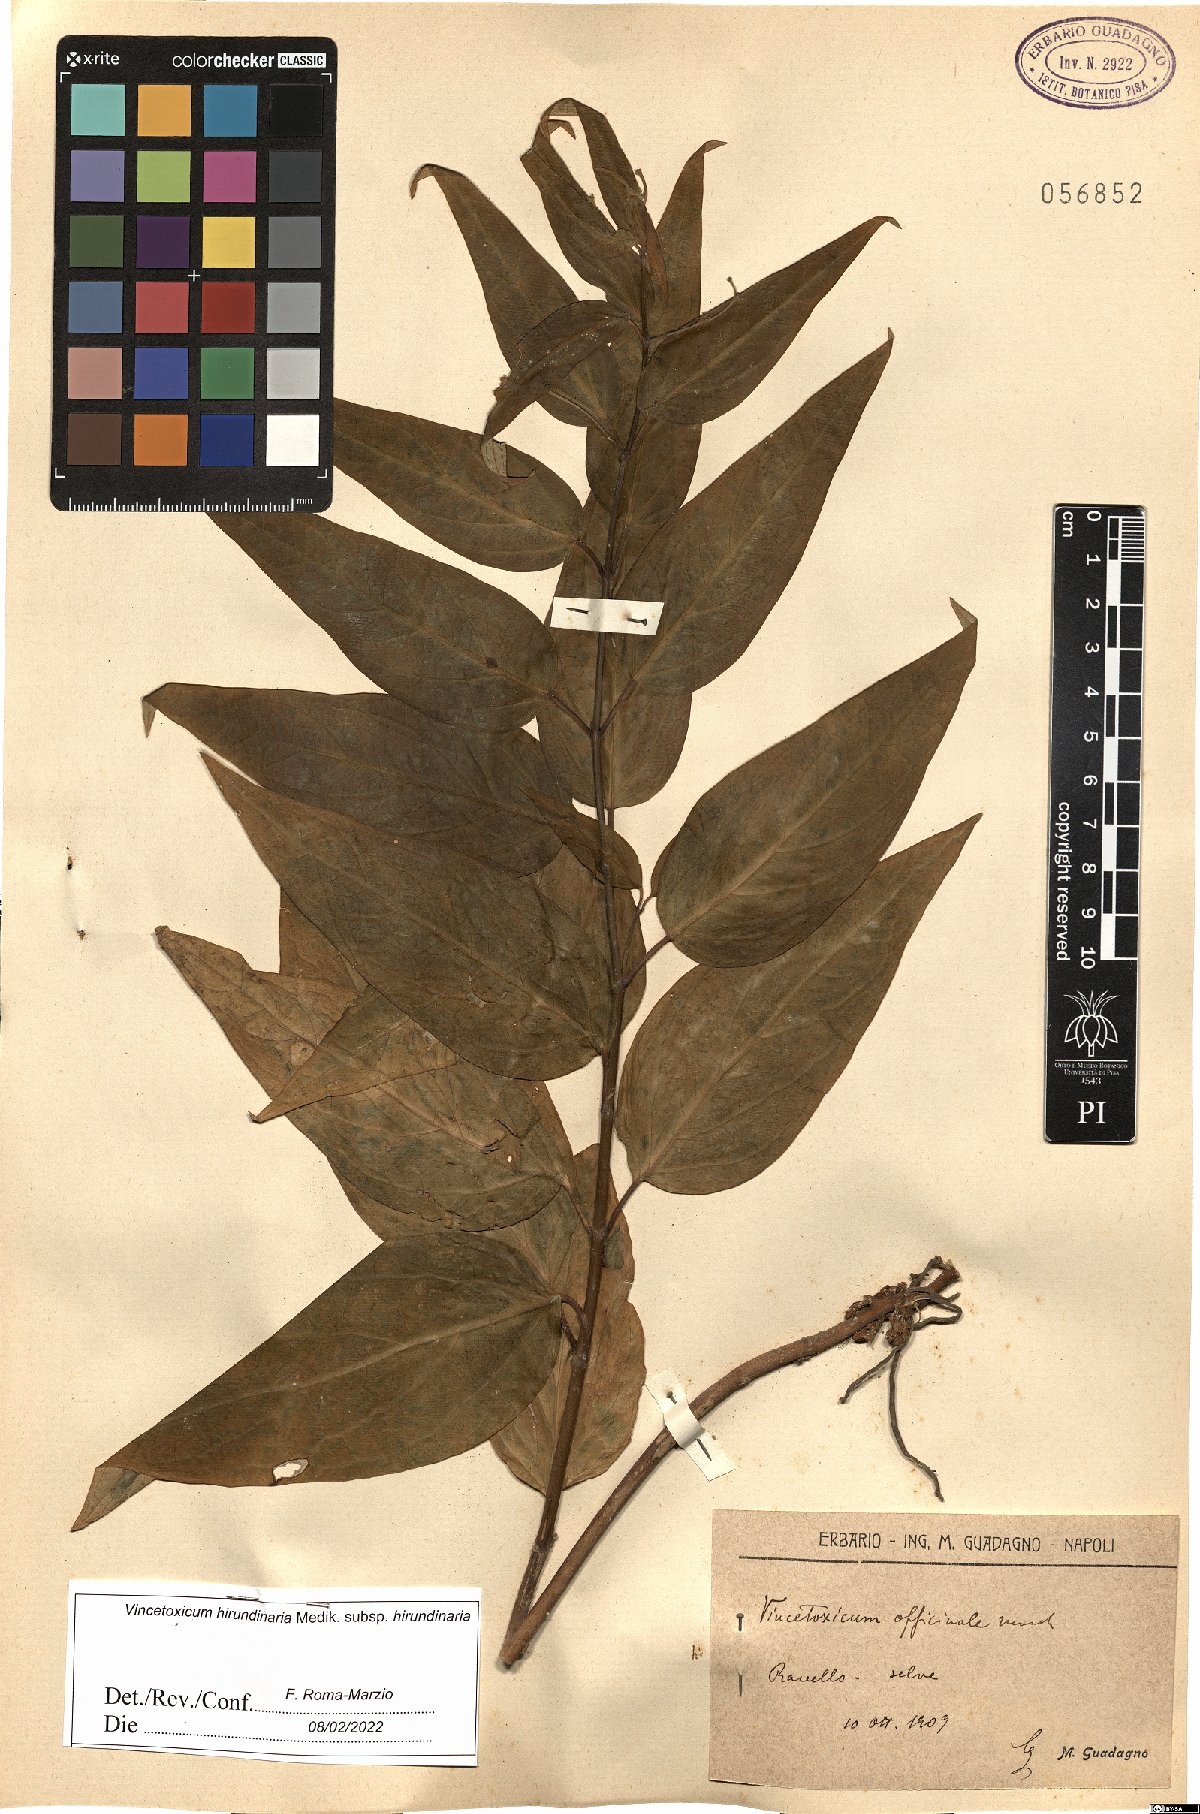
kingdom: Plantae
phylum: Tracheophyta
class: Magnoliopsida
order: Gentianales
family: Apocynaceae
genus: Vincetoxicum
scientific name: Vincetoxicum hirundinaria
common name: White swallowwort
